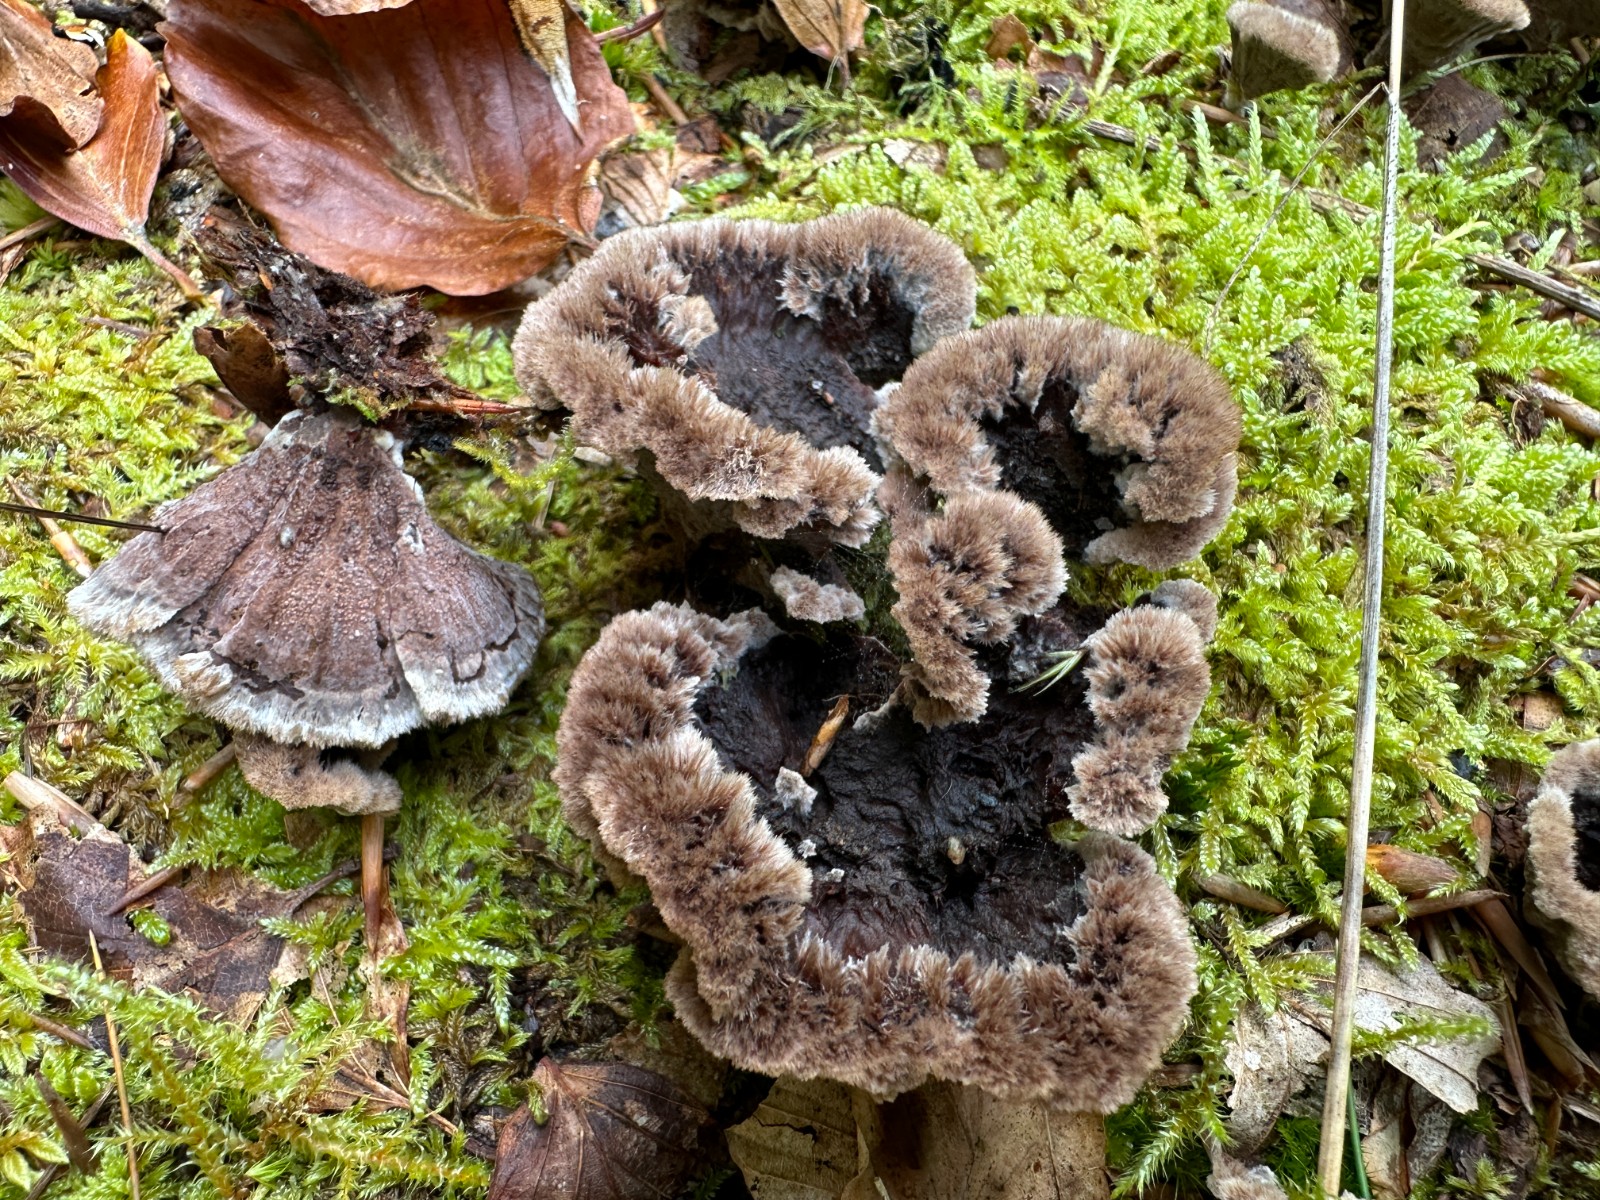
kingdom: Fungi
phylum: Basidiomycota
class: Agaricomycetes
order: Thelephorales
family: Thelephoraceae
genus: Thelephora
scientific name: Thelephora terrestris
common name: fliget frynsesvamp
